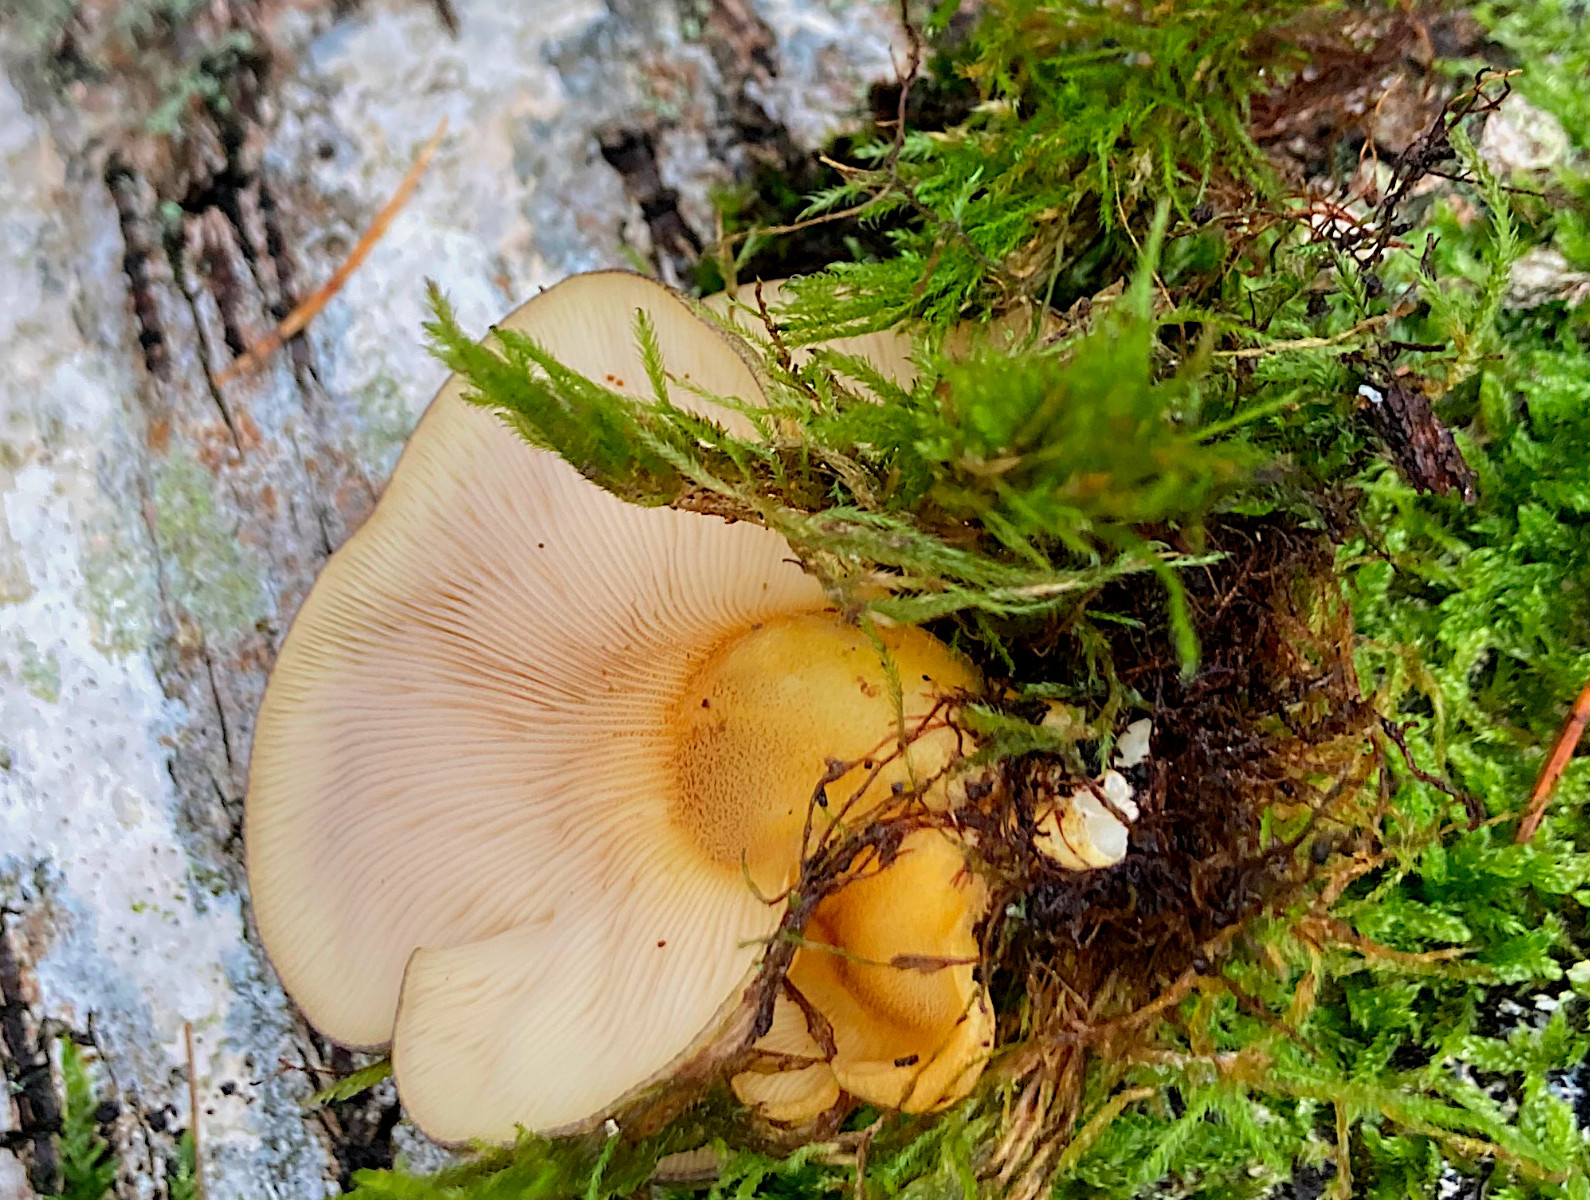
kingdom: Fungi
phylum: Basidiomycota
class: Agaricomycetes
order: Agaricales
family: Sarcomyxaceae
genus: Sarcomyxa
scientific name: Sarcomyxa serotina
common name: gummihat
